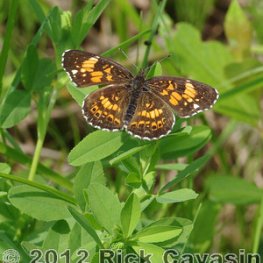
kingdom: Animalia
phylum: Arthropoda
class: Insecta
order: Lepidoptera
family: Nymphalidae
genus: Chlosyne
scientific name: Chlosyne nycteis
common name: Silvery Checkerspot
